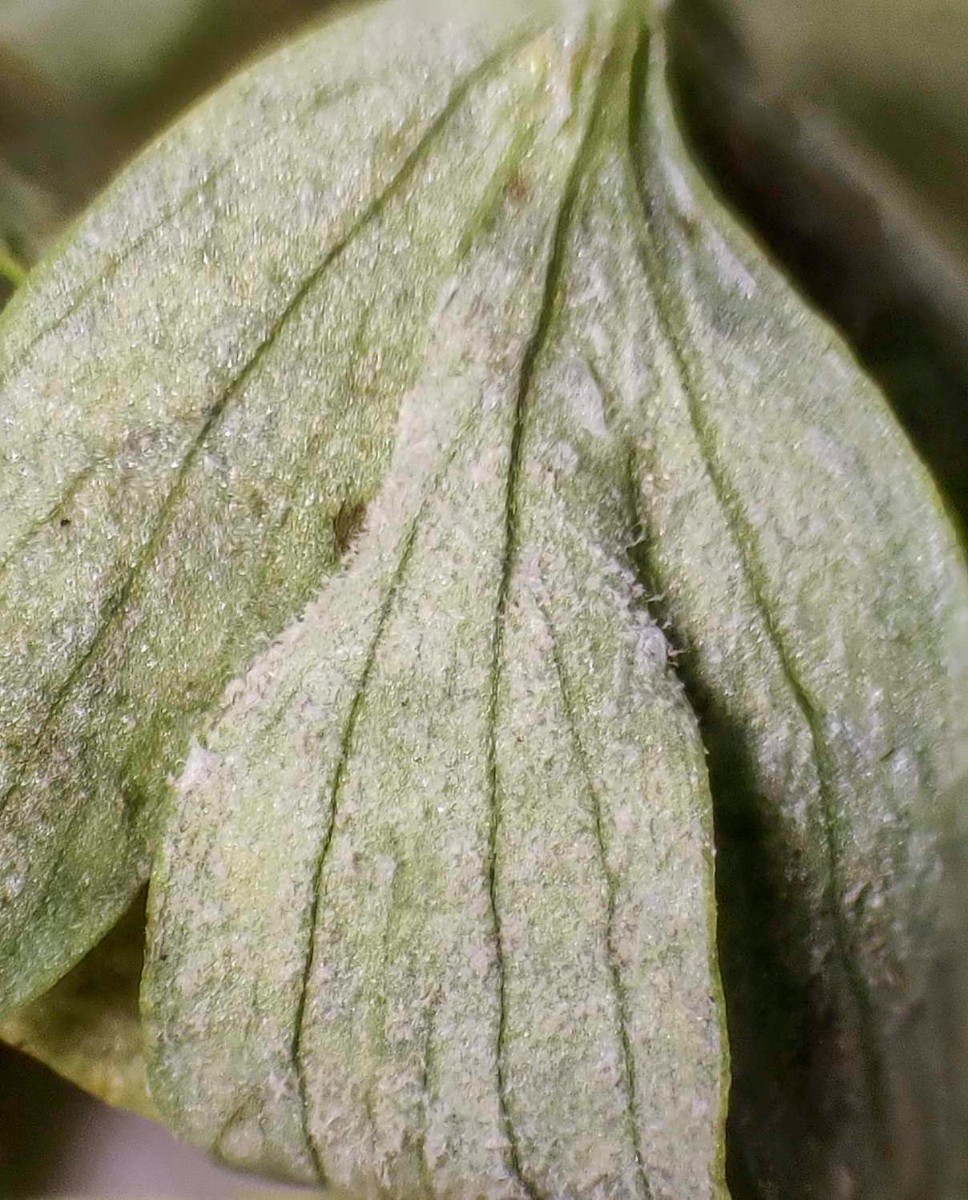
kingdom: Chromista
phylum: Oomycota
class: Peronosporea
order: Peronosporales
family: Peronosporaceae
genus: Peronospora
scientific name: Peronospora corydalis
